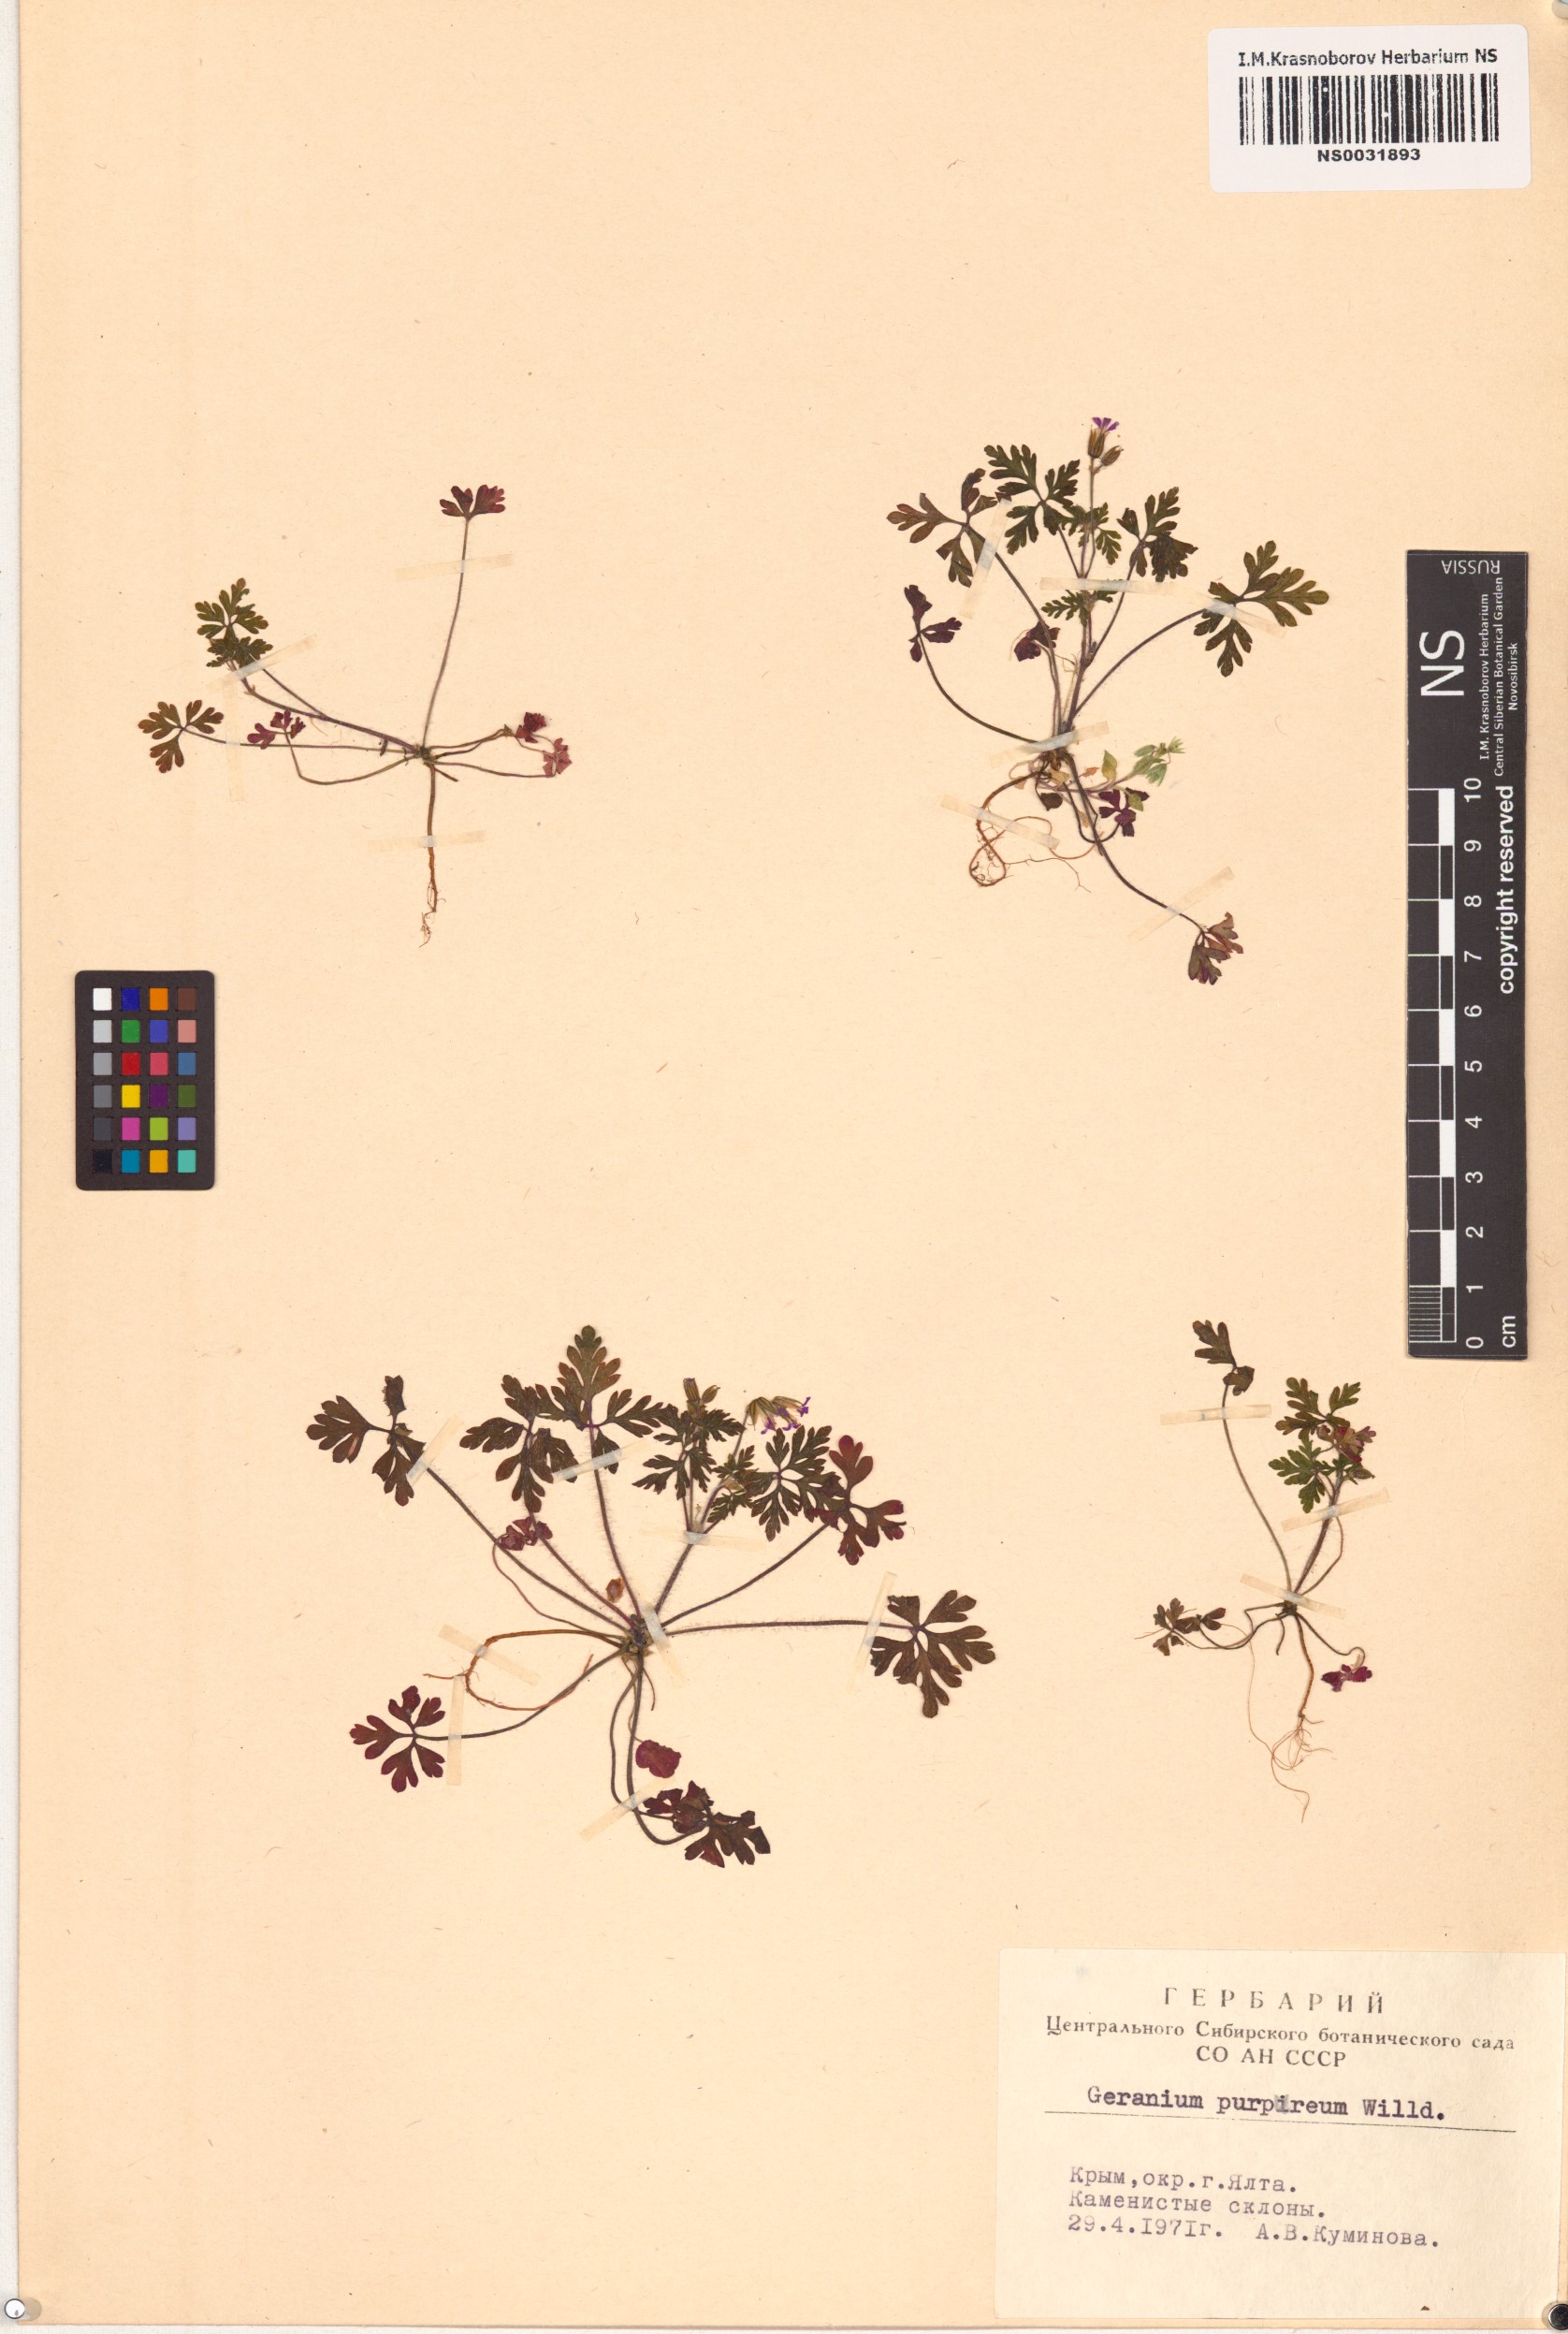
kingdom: Plantae
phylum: Tracheophyta
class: Magnoliopsida
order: Geraniales
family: Geraniaceae
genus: Geranium
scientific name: Geranium purpureum
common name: Little-robin
